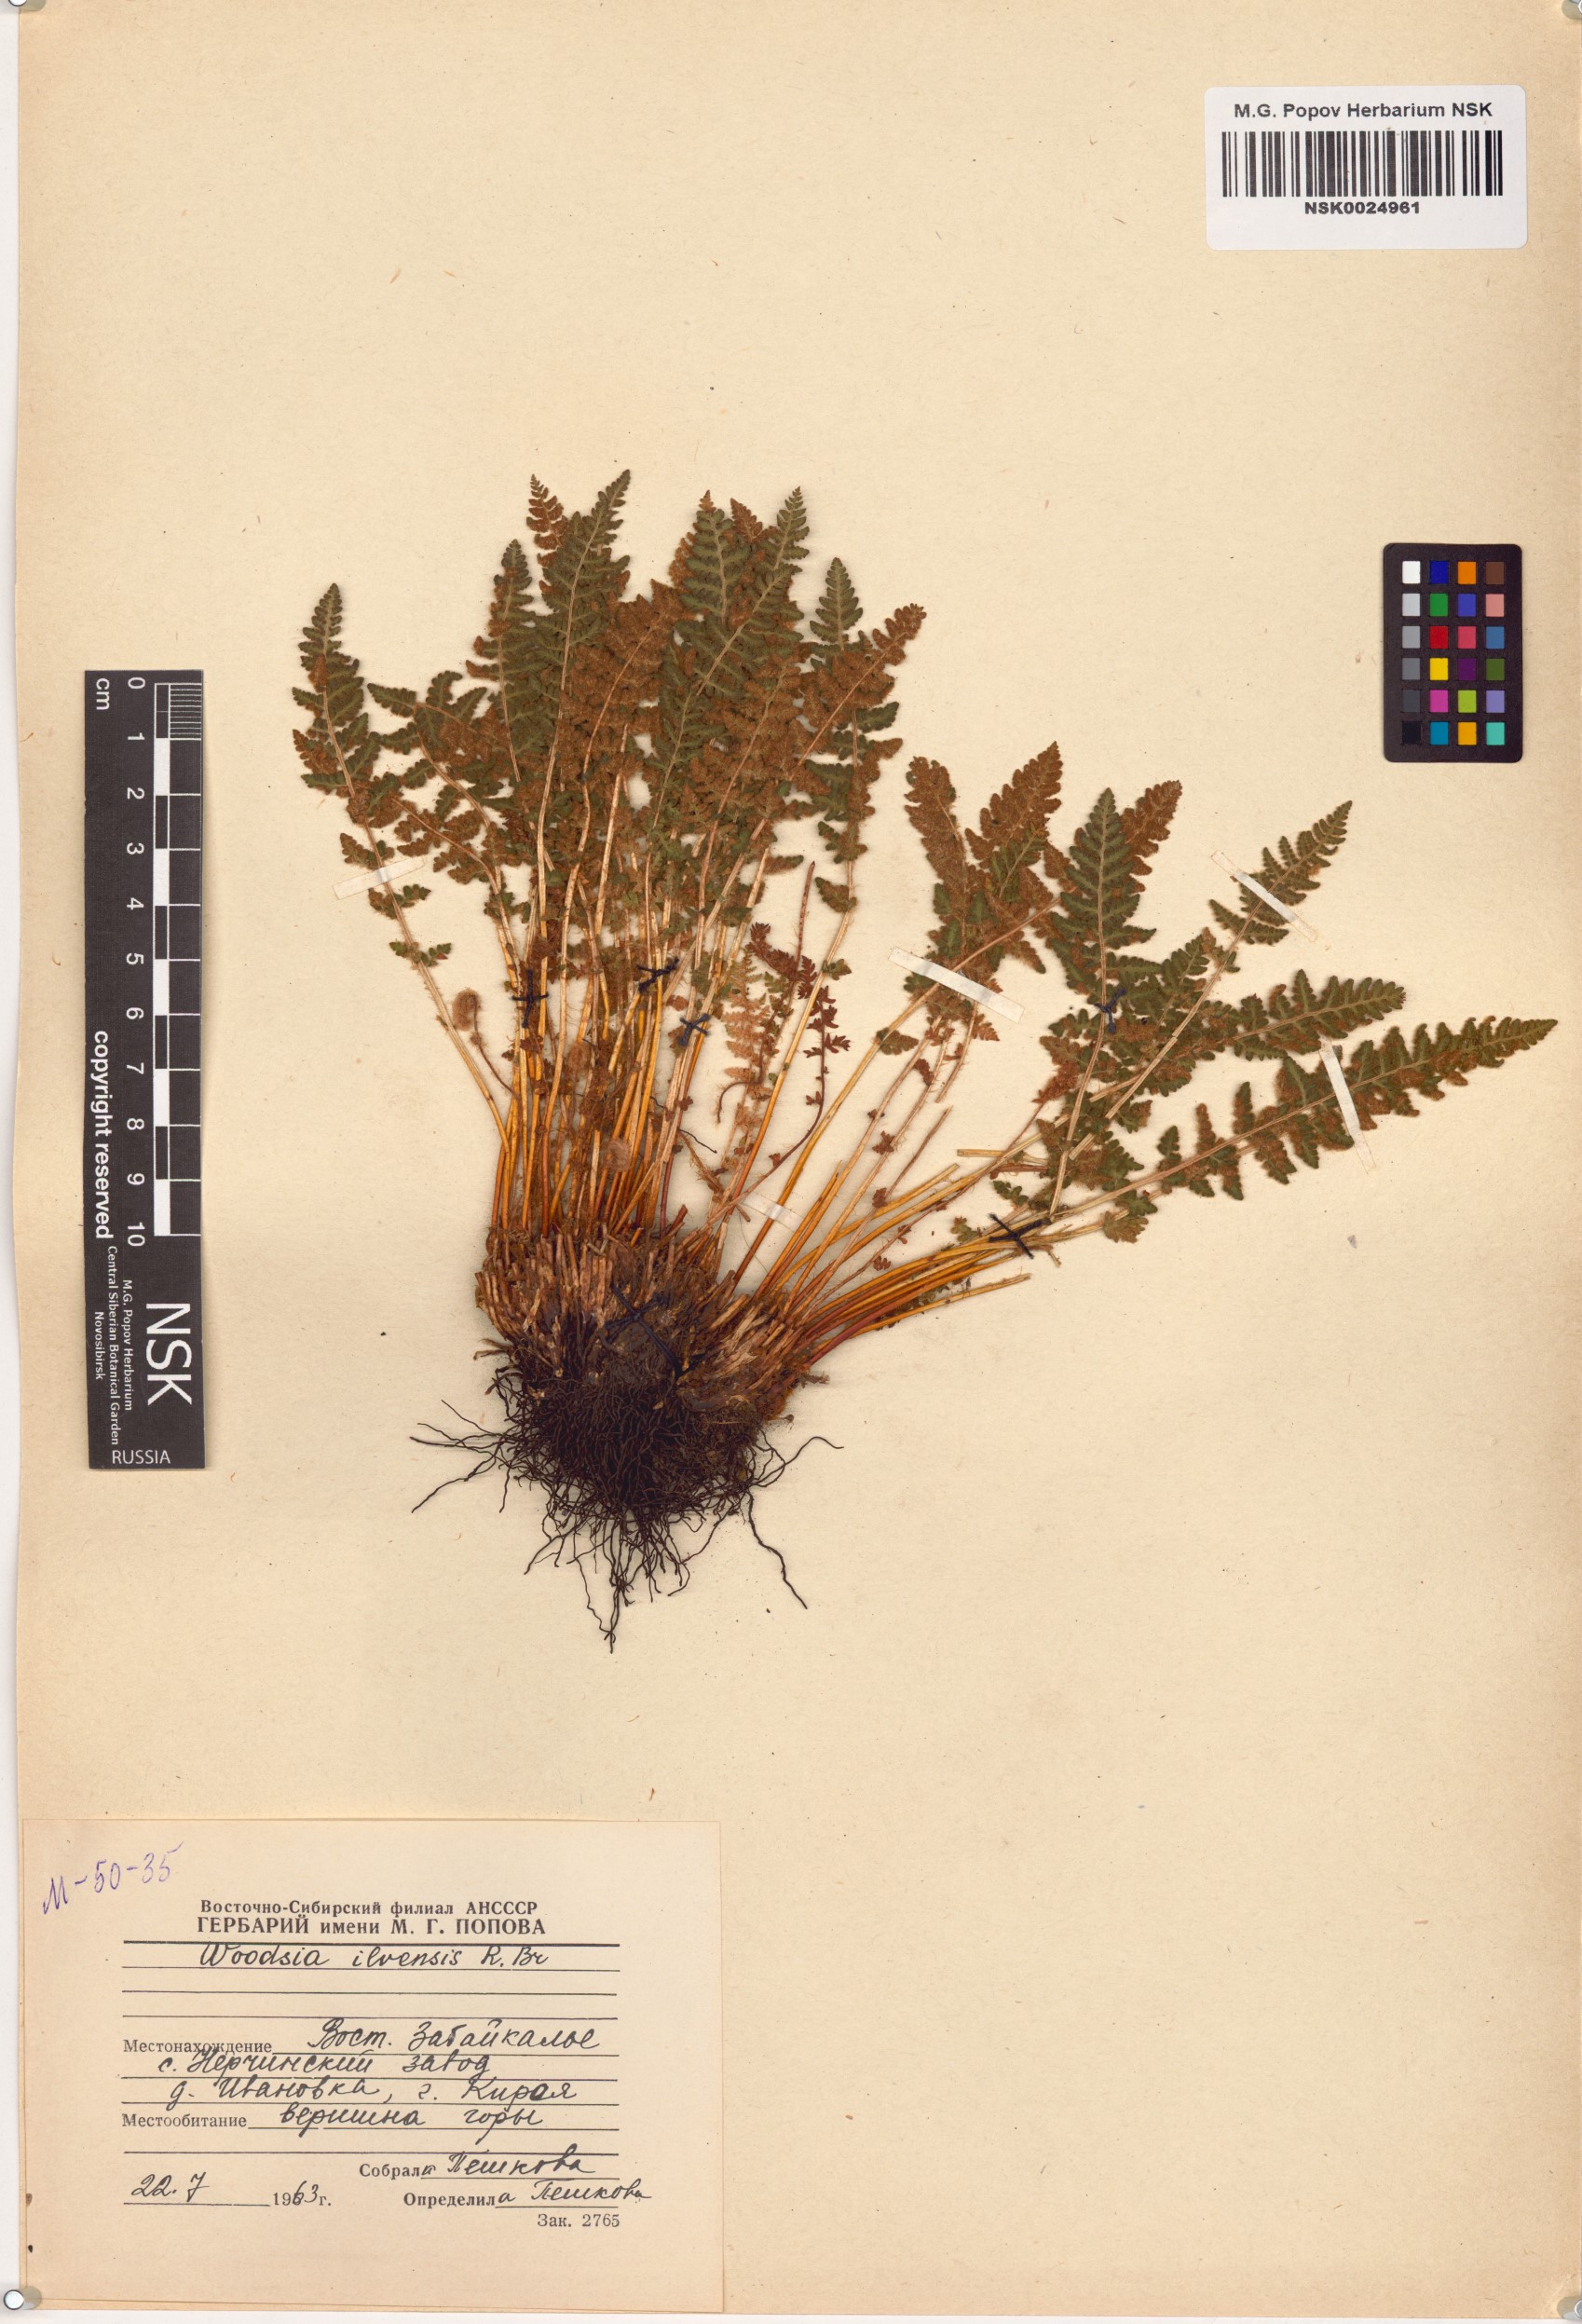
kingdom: Plantae
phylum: Tracheophyta
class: Polypodiopsida
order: Polypodiales
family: Woodsiaceae
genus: Woodsia
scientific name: Woodsia ilvensis
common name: Fragrant woodsia
